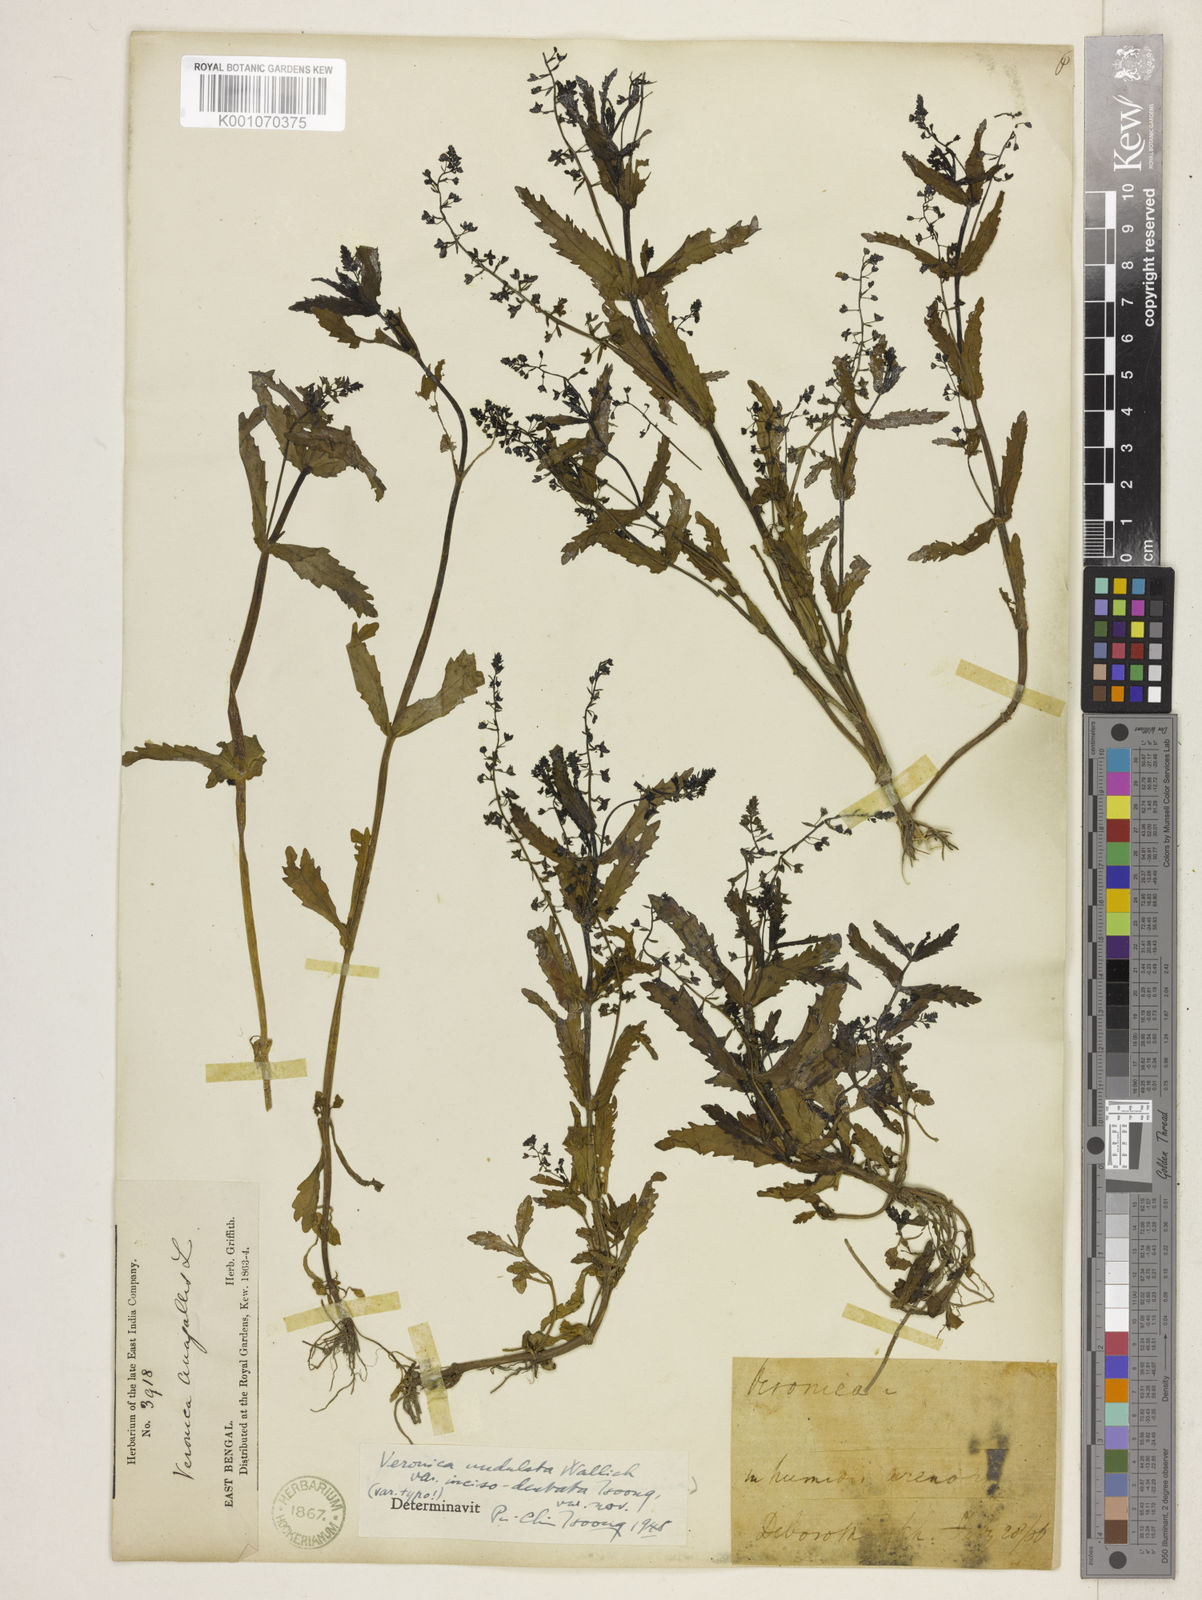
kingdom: Plantae
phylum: Tracheophyta
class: Magnoliopsida
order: Lamiales
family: Plantaginaceae
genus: Veronica
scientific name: Veronica undulata
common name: Undulate speedwell
